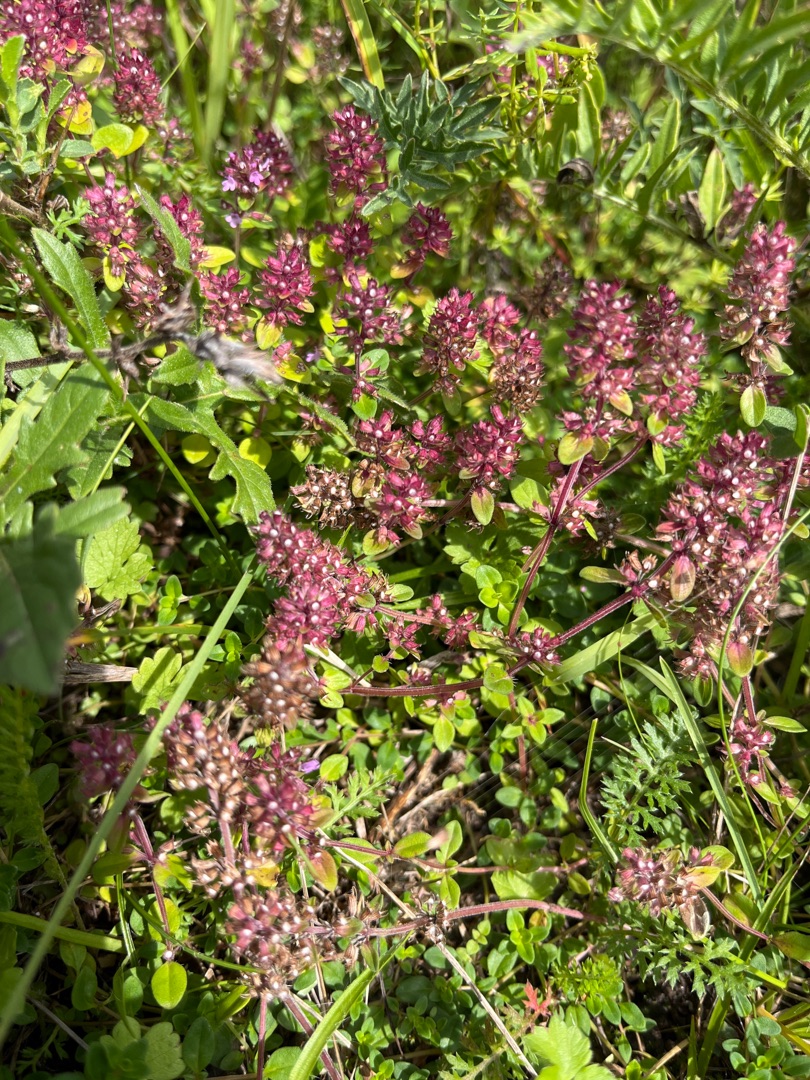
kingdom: Plantae
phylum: Tracheophyta
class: Magnoliopsida
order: Lamiales
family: Lamiaceae
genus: Thymus
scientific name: Thymus pulegioides
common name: Bredbladet timian
